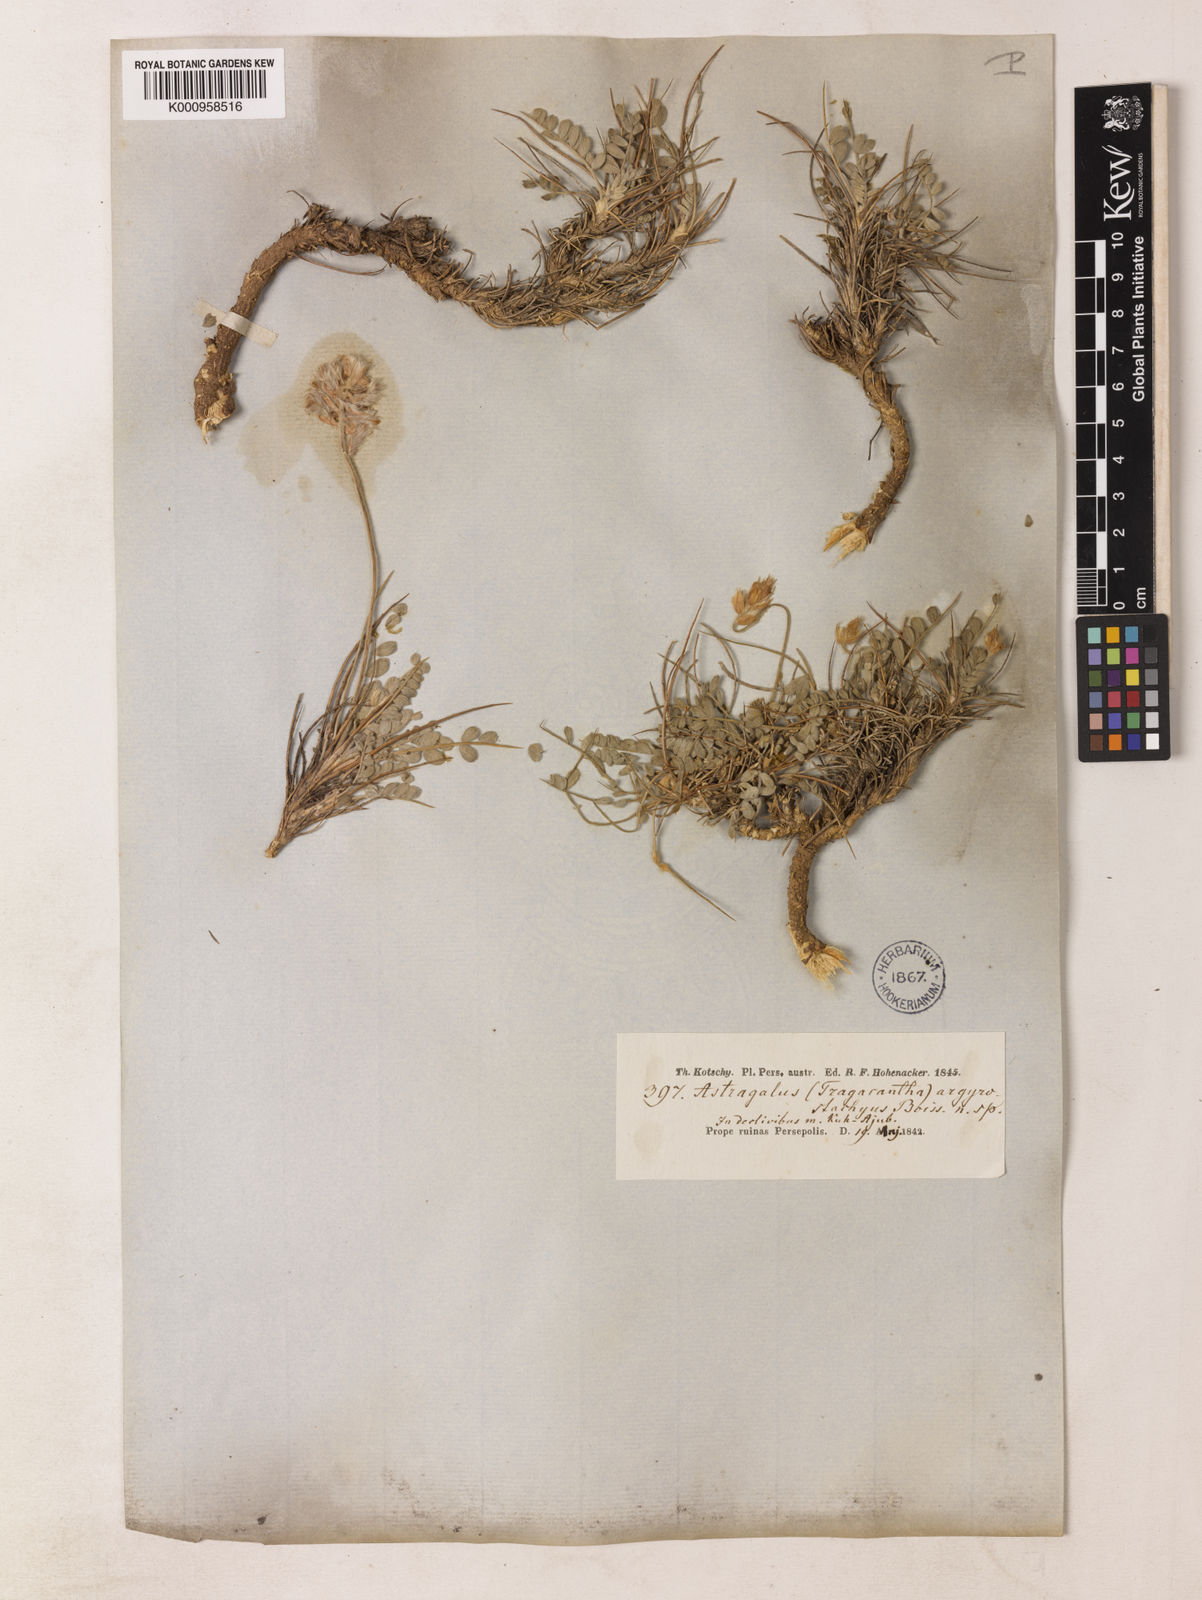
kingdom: Plantae
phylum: Tracheophyta
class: Magnoliopsida
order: Fabales
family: Fabaceae
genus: Astragalus
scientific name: Astragalus argyrostachyus
